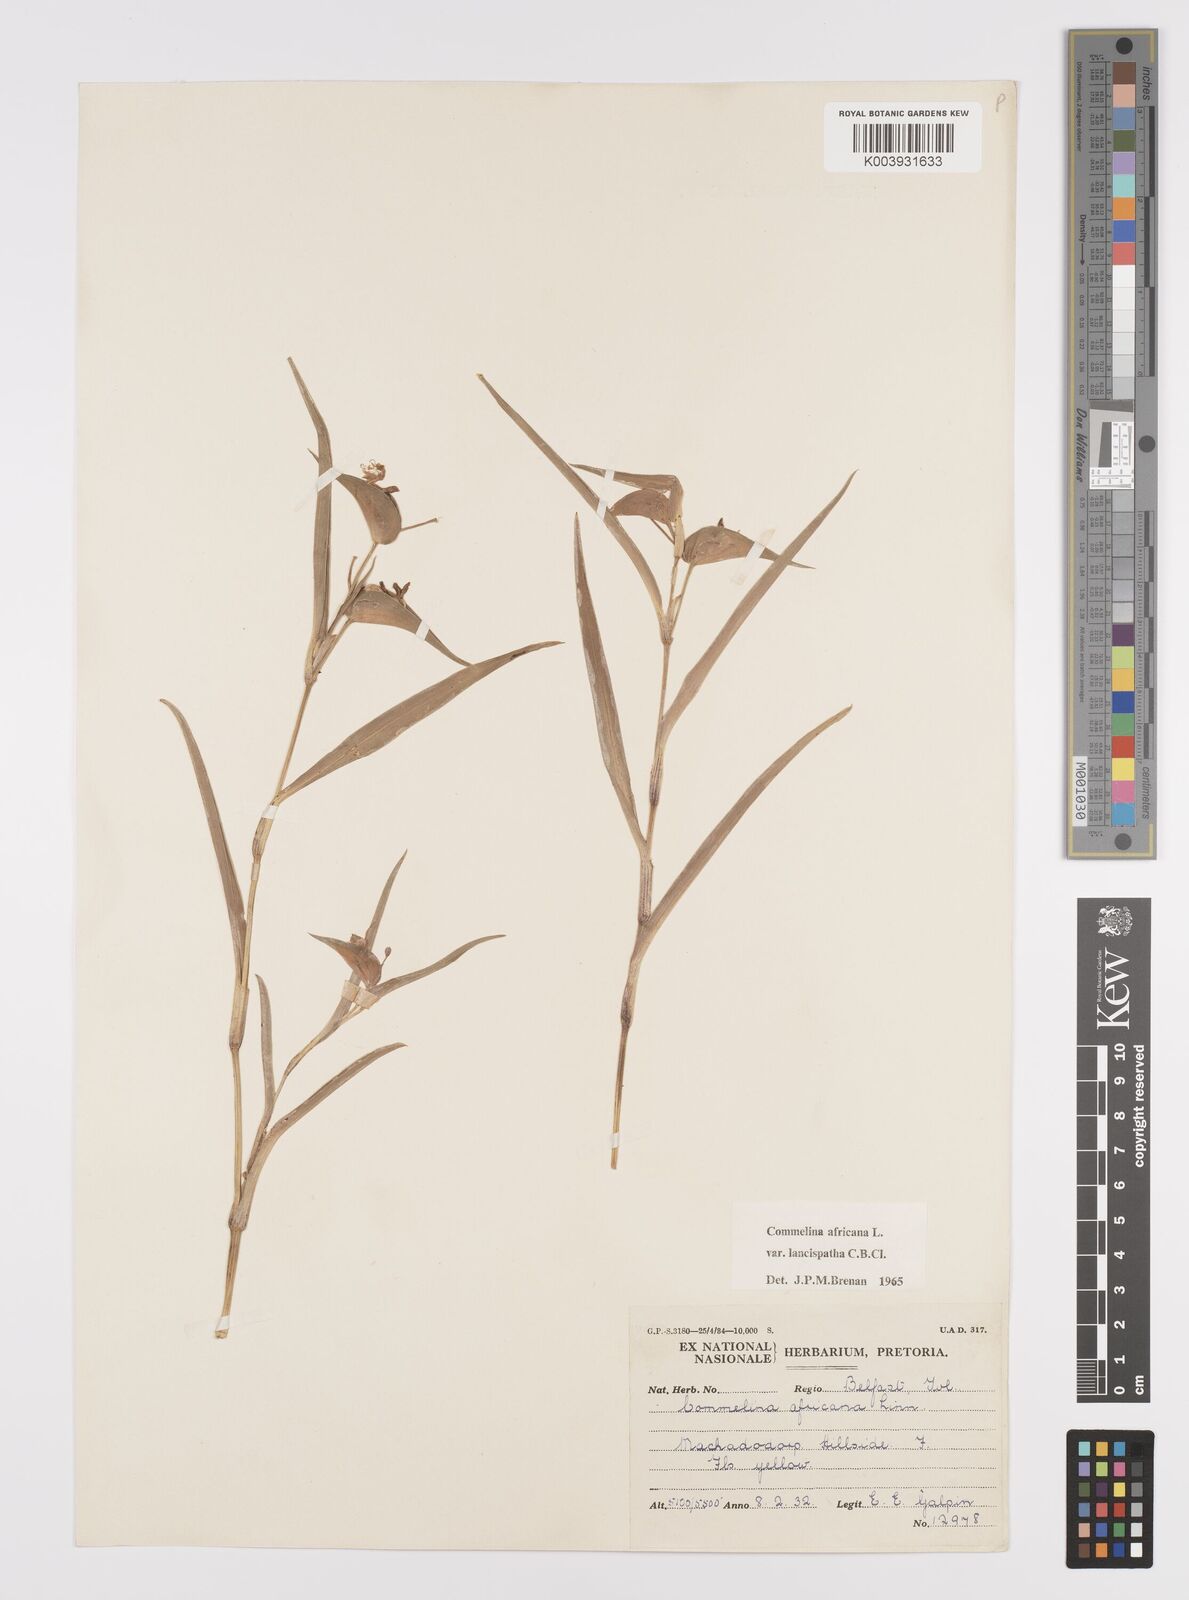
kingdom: Plantae
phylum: Tracheophyta
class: Liliopsida
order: Commelinales
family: Commelinaceae
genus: Commelina
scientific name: Commelina africana
